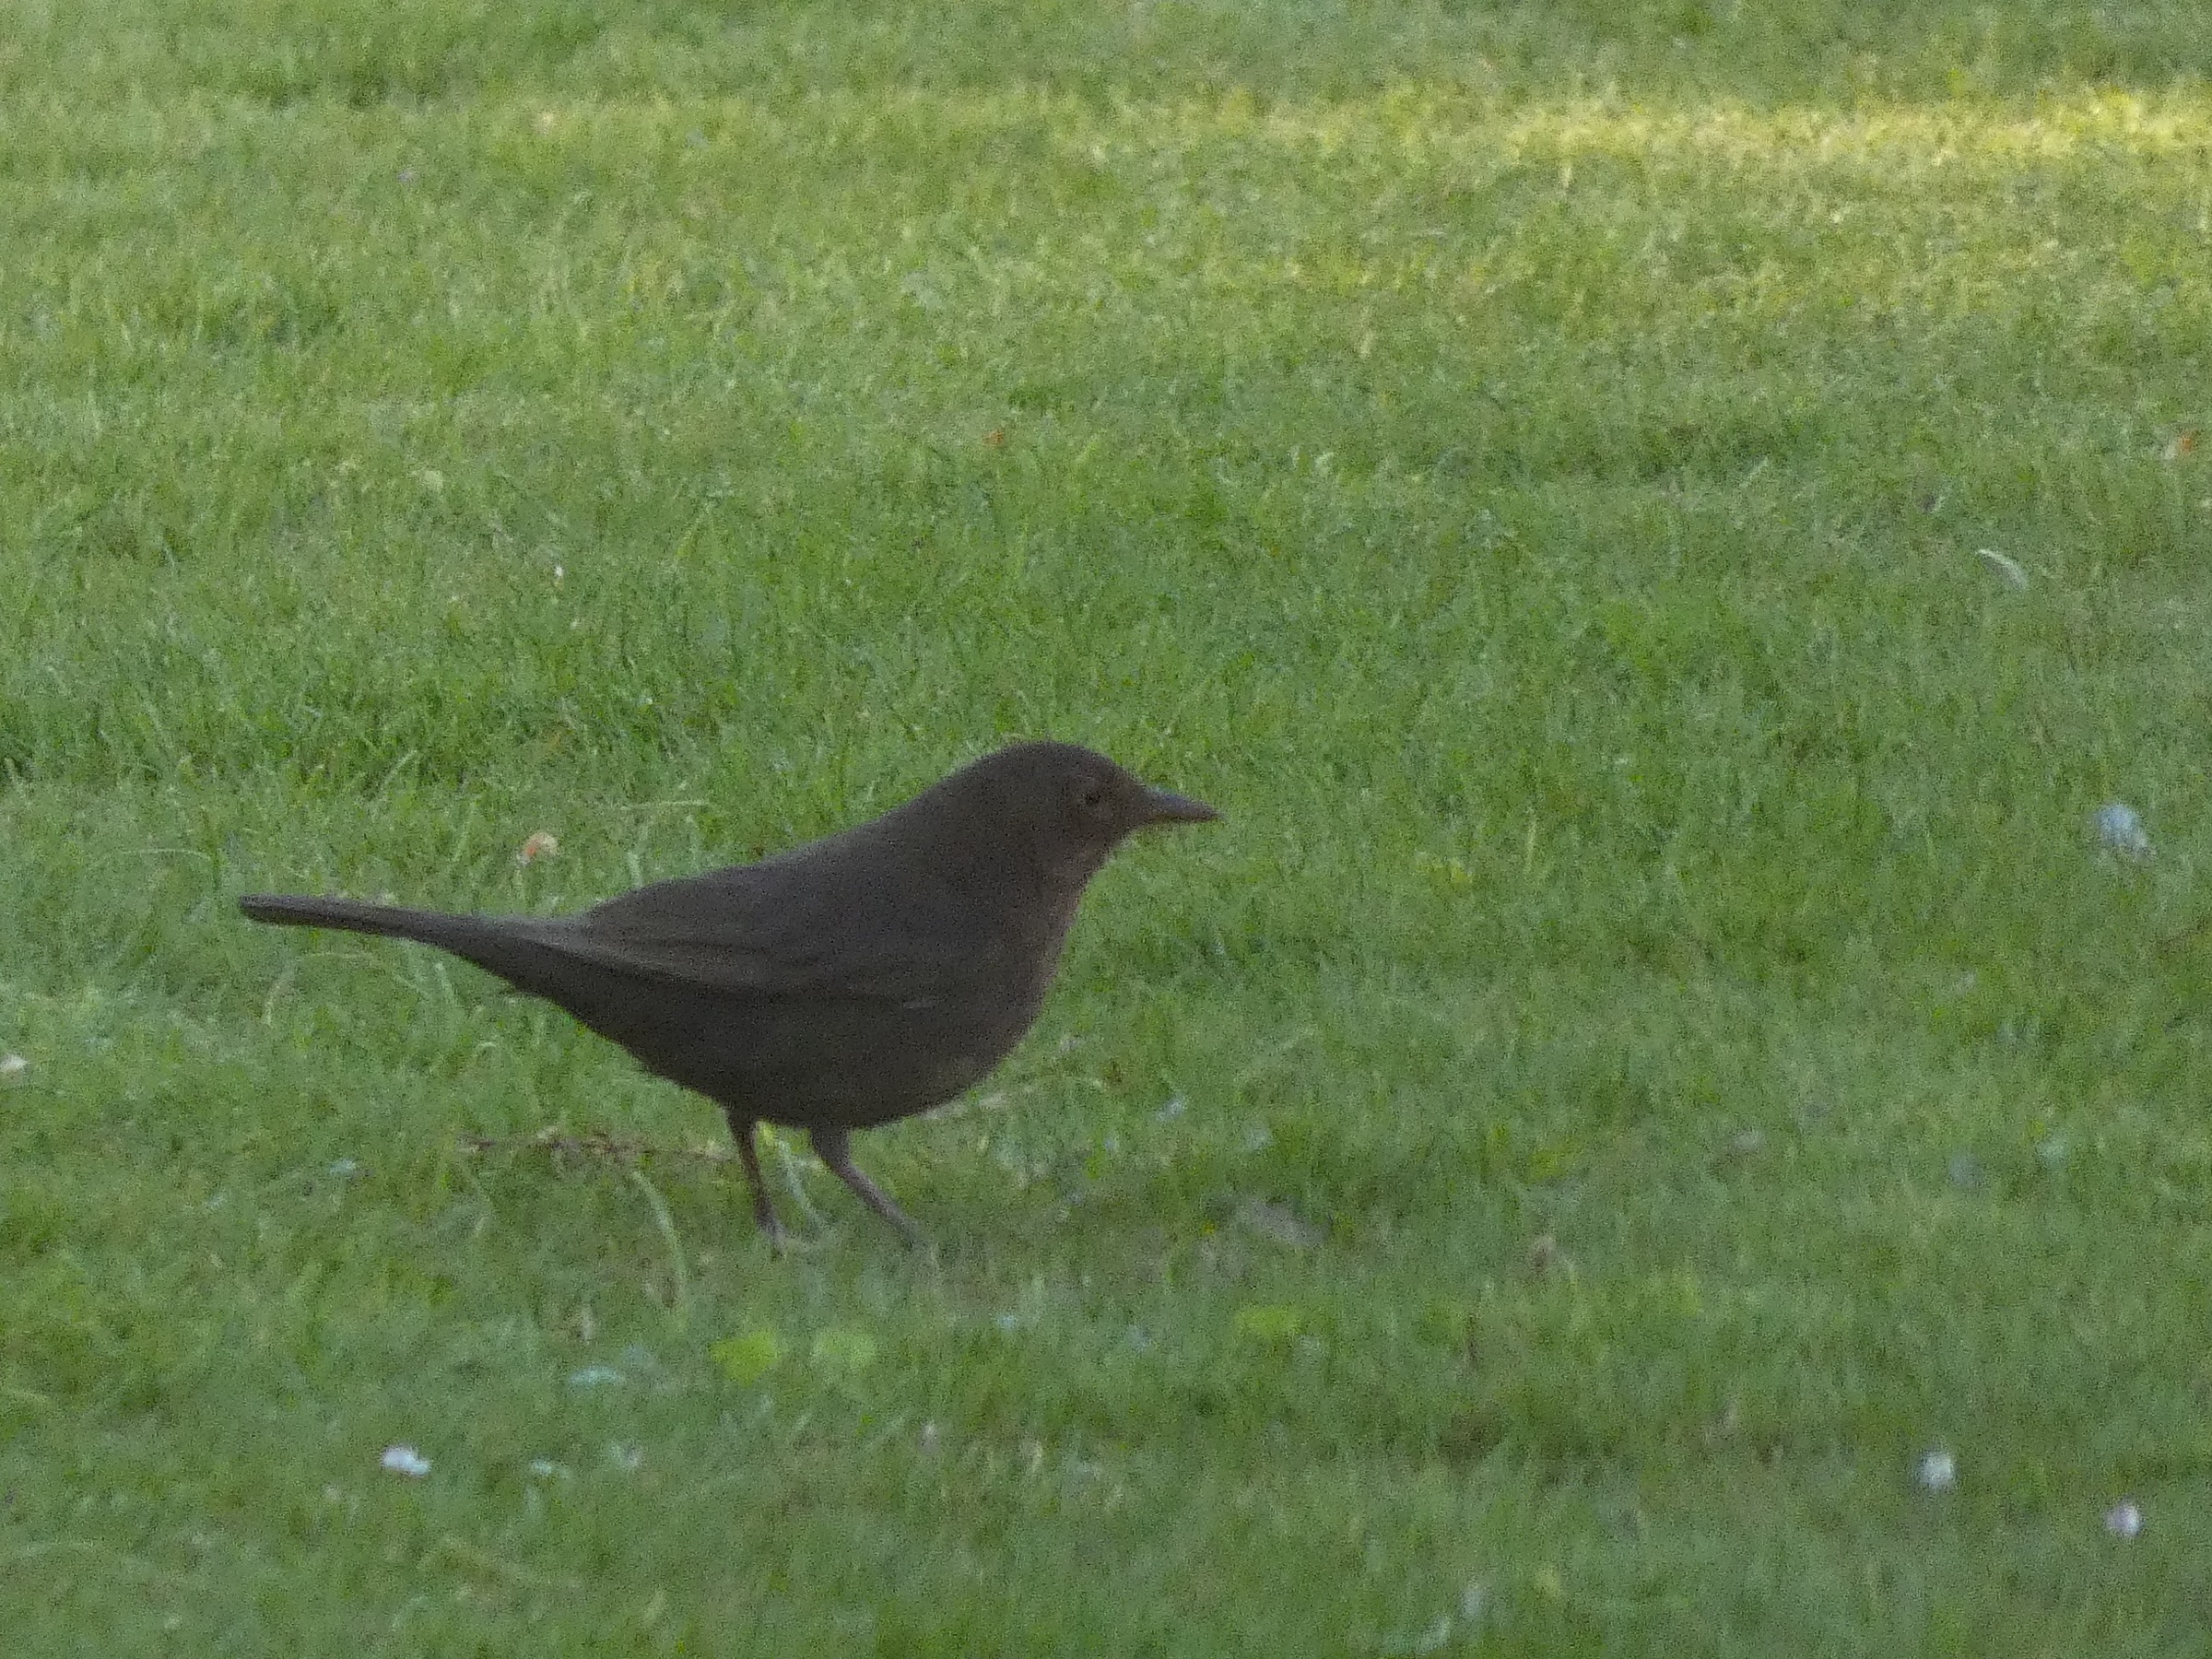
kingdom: Animalia
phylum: Chordata
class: Aves
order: Passeriformes
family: Turdidae
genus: Turdus
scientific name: Turdus merula
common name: Solsort
